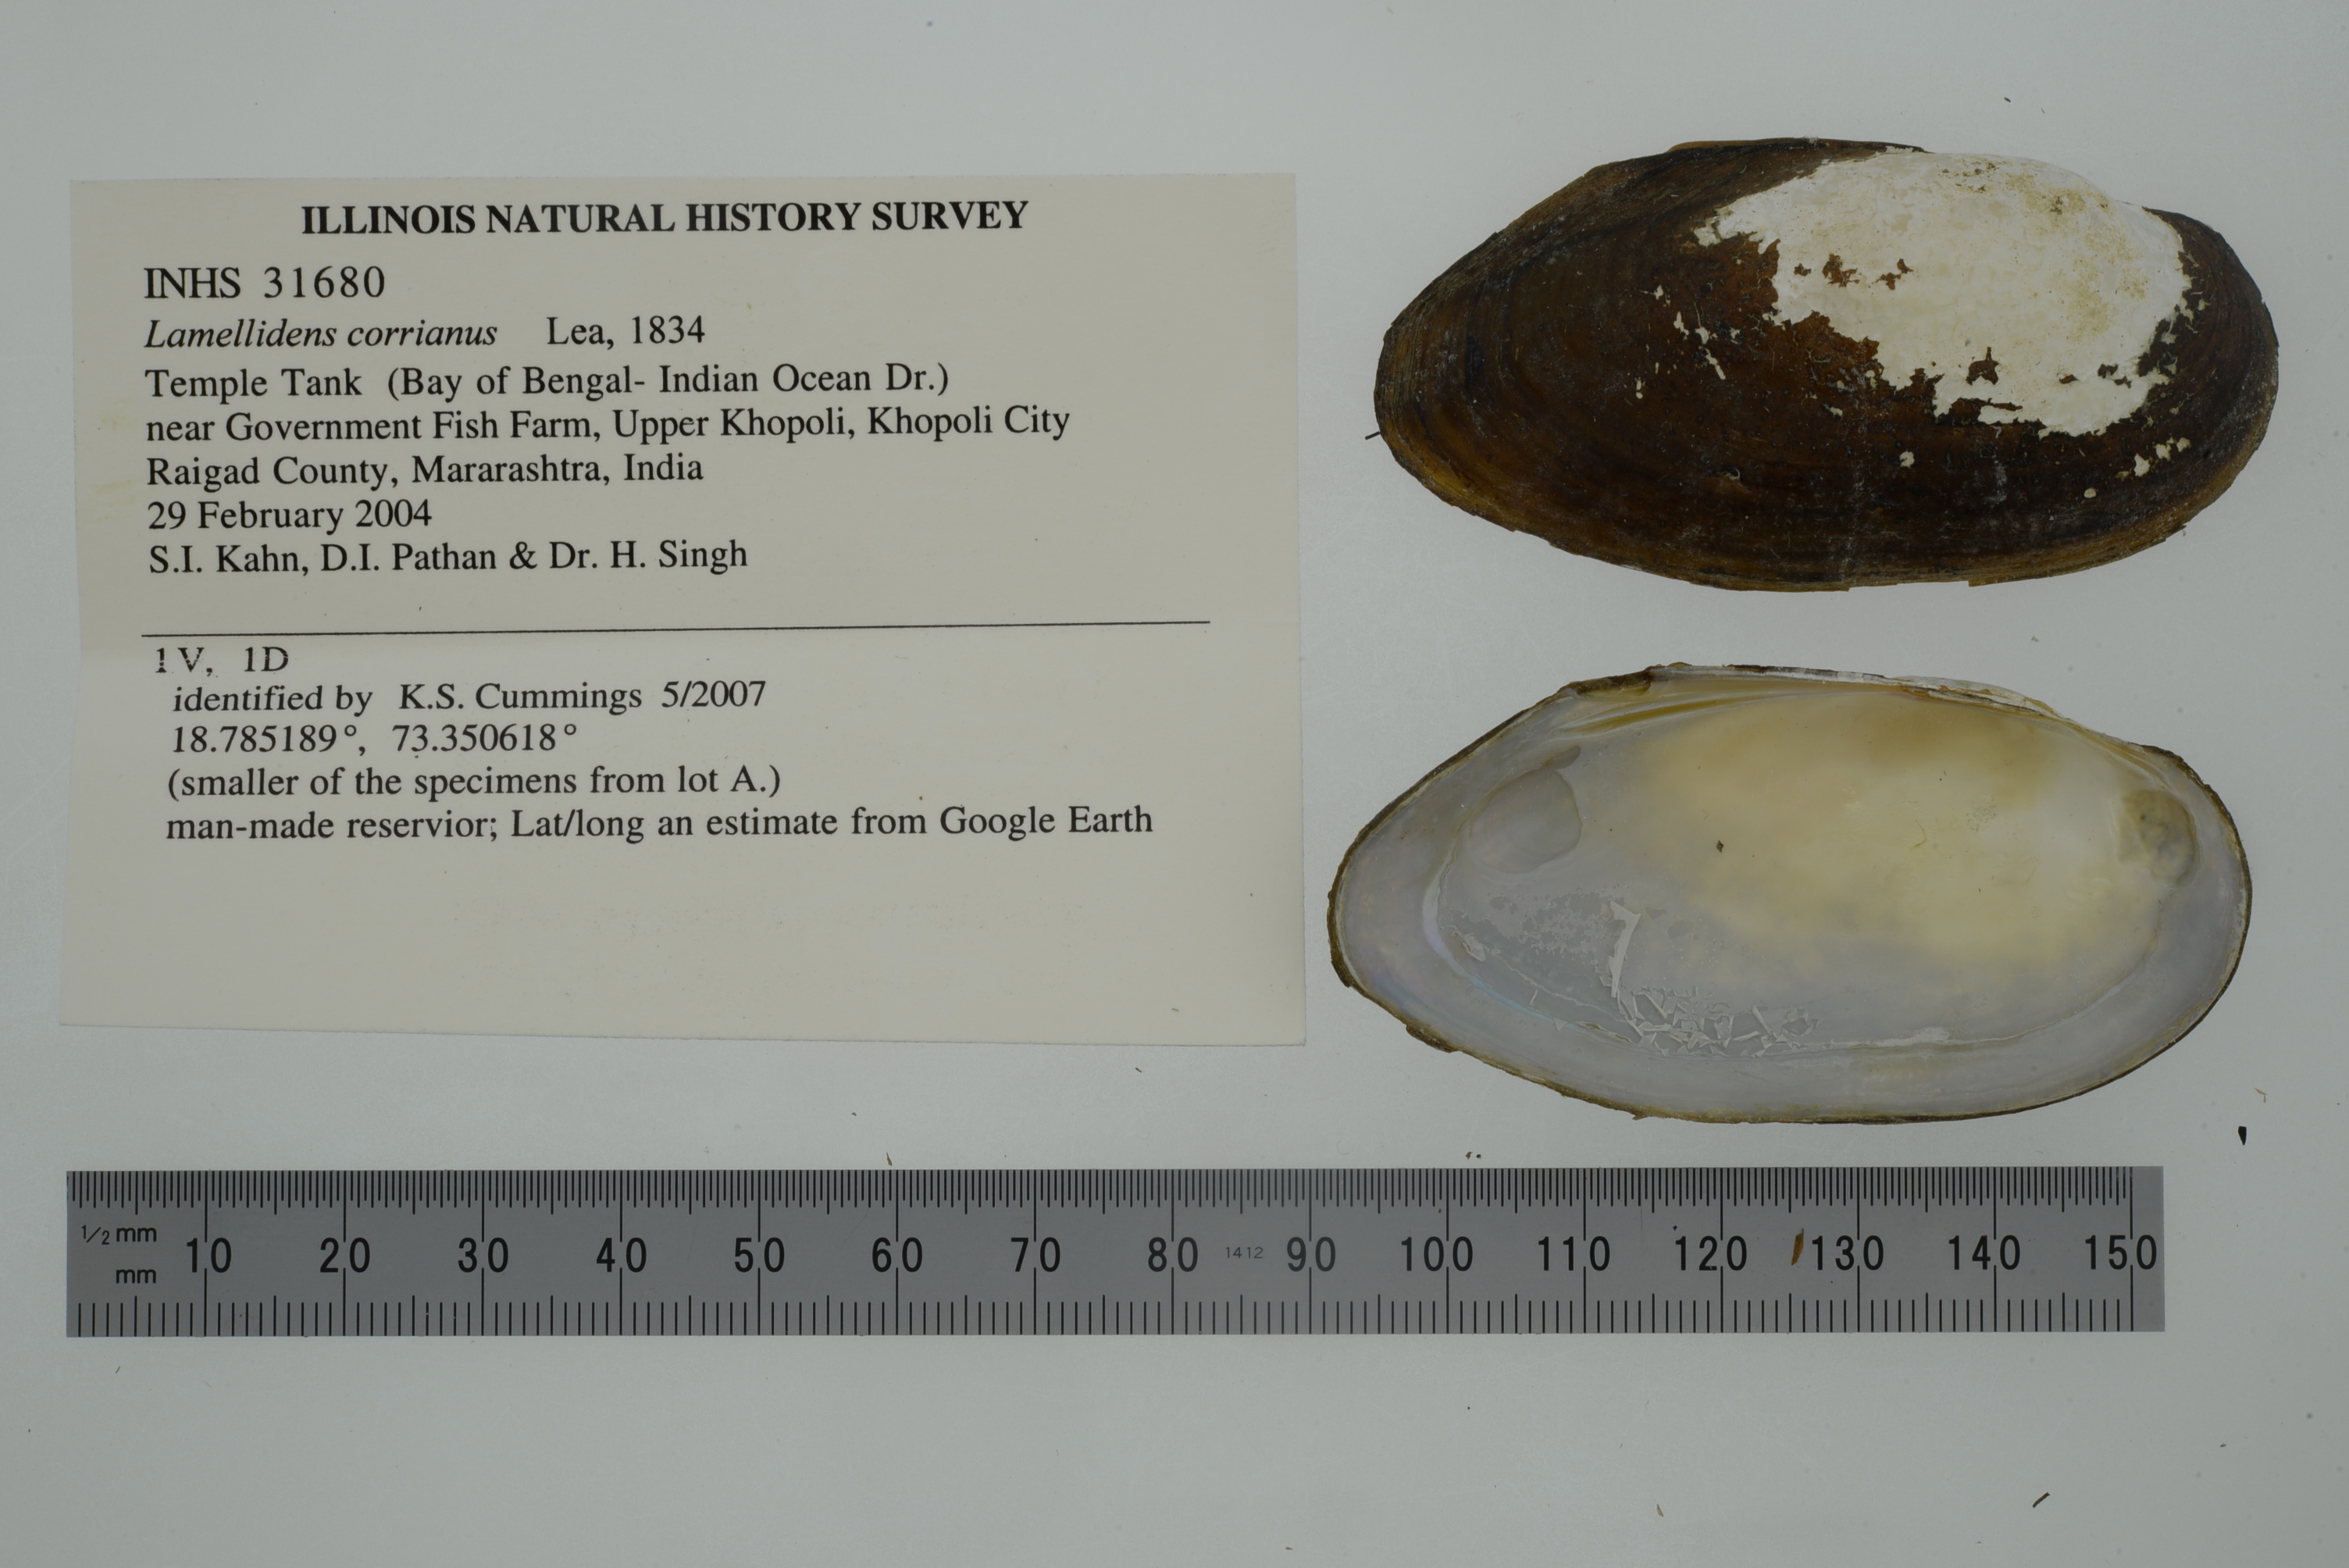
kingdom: Animalia
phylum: Mollusca
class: Bivalvia
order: Unionida
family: Unionidae
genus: Lamellidens
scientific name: Lamellidens corrianus
